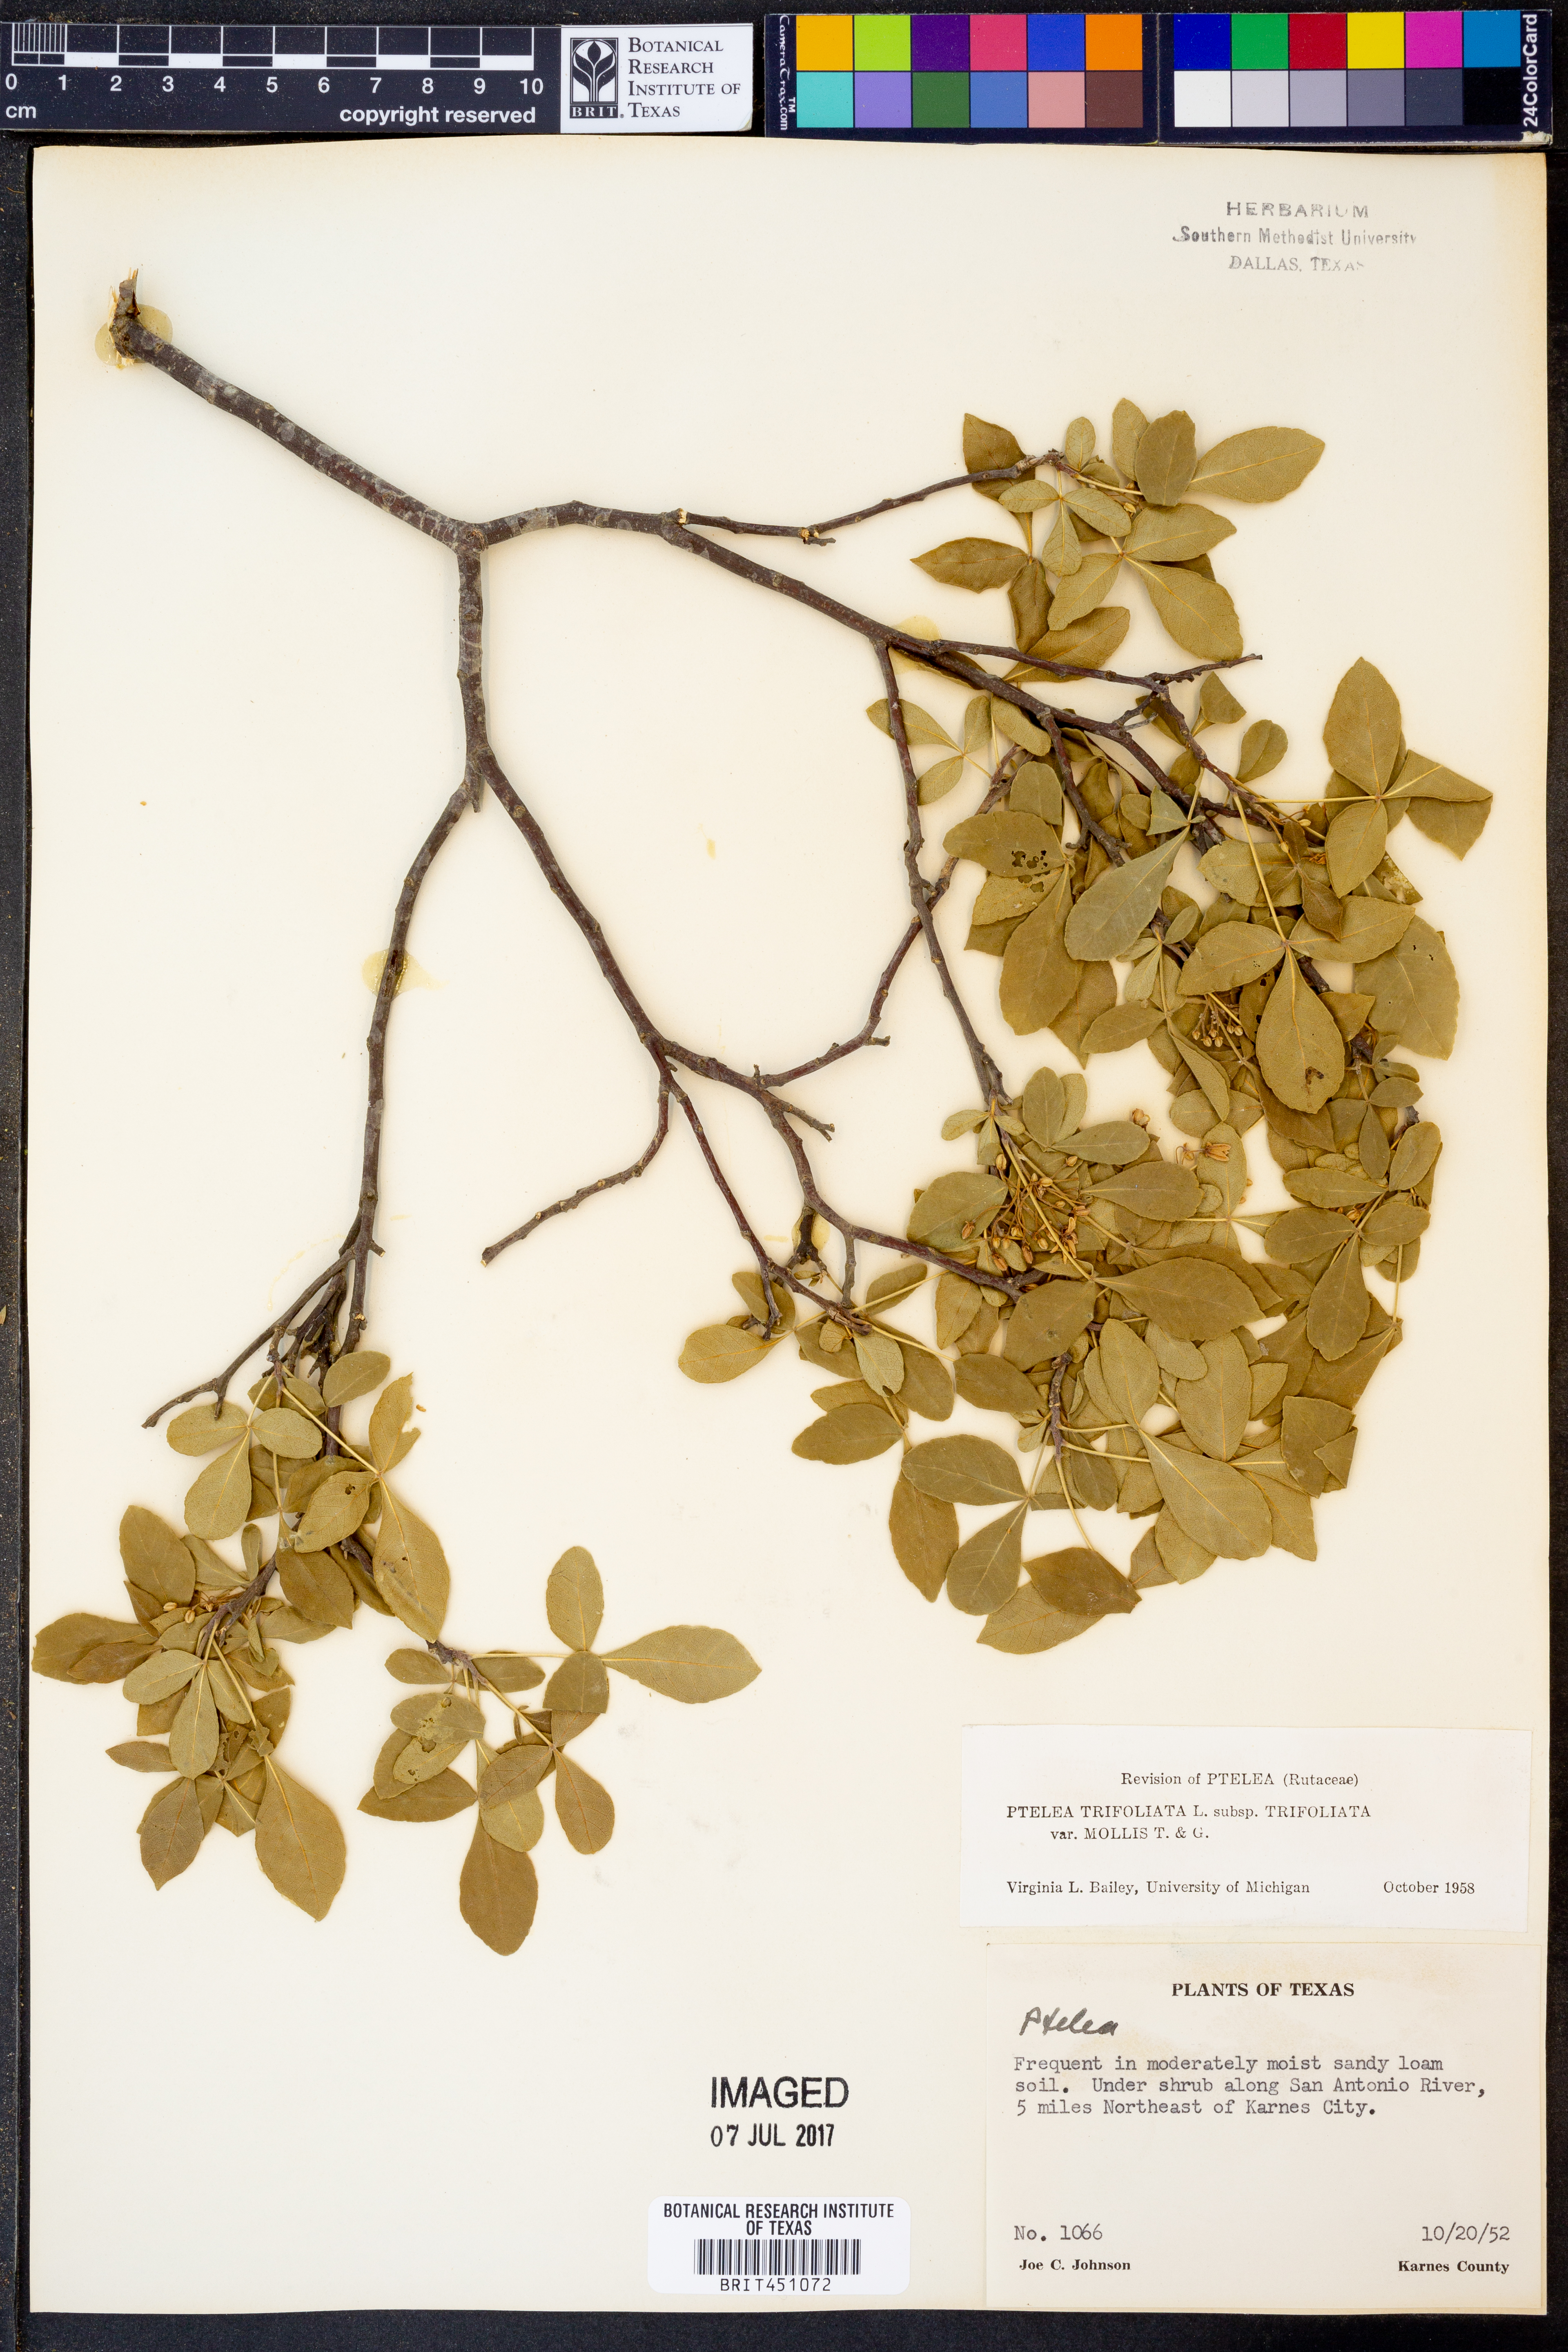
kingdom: Plantae
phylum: Tracheophyta
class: Magnoliopsida
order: Sapindales
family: Rutaceae
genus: Ptelea
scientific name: Ptelea trifoliata
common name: Common hop-tree
